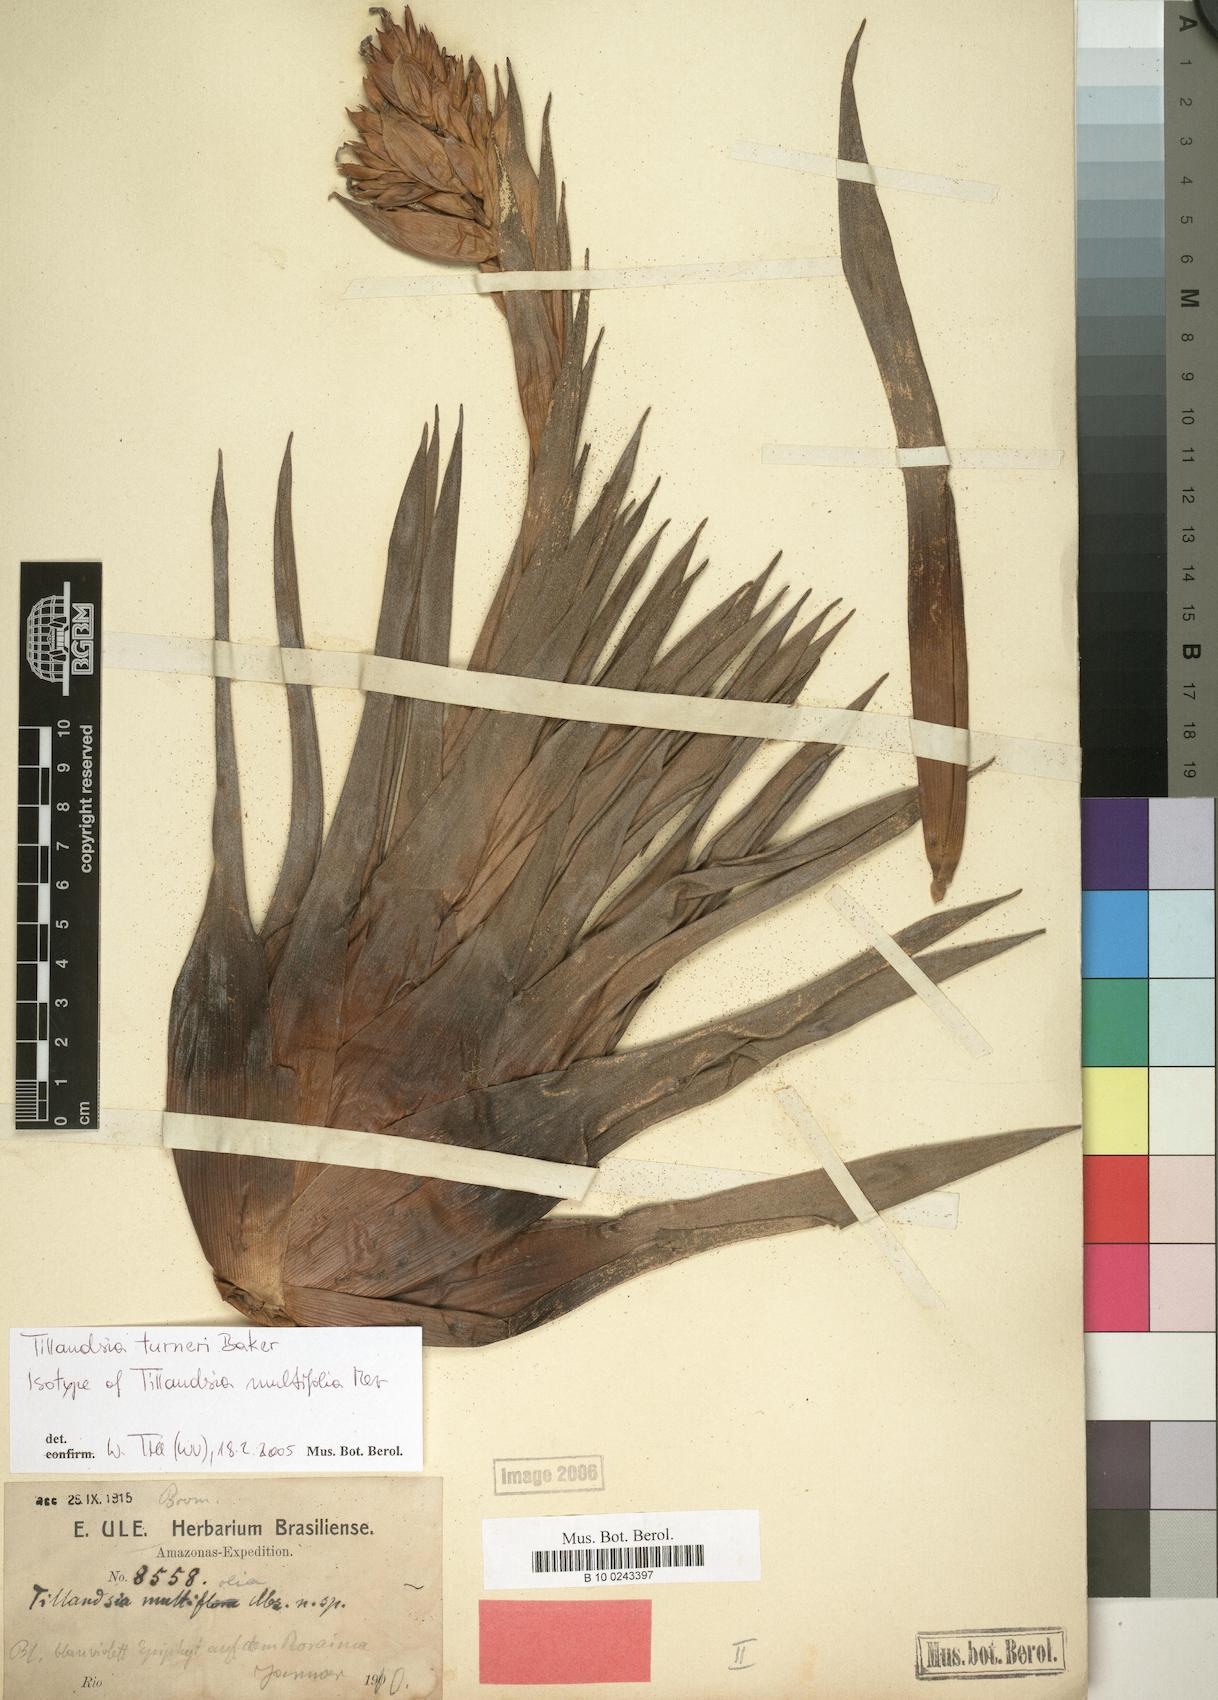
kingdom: Plantae
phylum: Tracheophyta
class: Liliopsida
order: Poales
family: Bromeliaceae
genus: Tillandsia
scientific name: Tillandsia turneri
